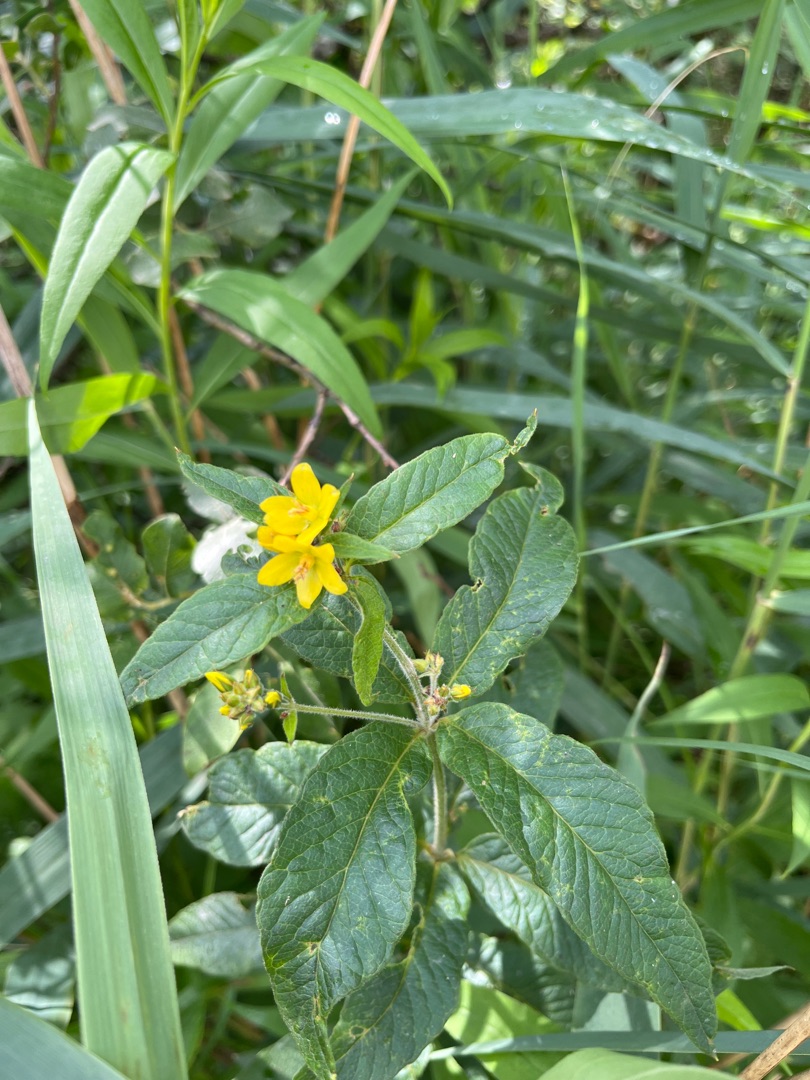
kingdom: Plantae
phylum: Tracheophyta
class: Magnoliopsida
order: Ericales
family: Primulaceae
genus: Lysimachia
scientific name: Lysimachia vulgaris
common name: Almindelig fredløs
